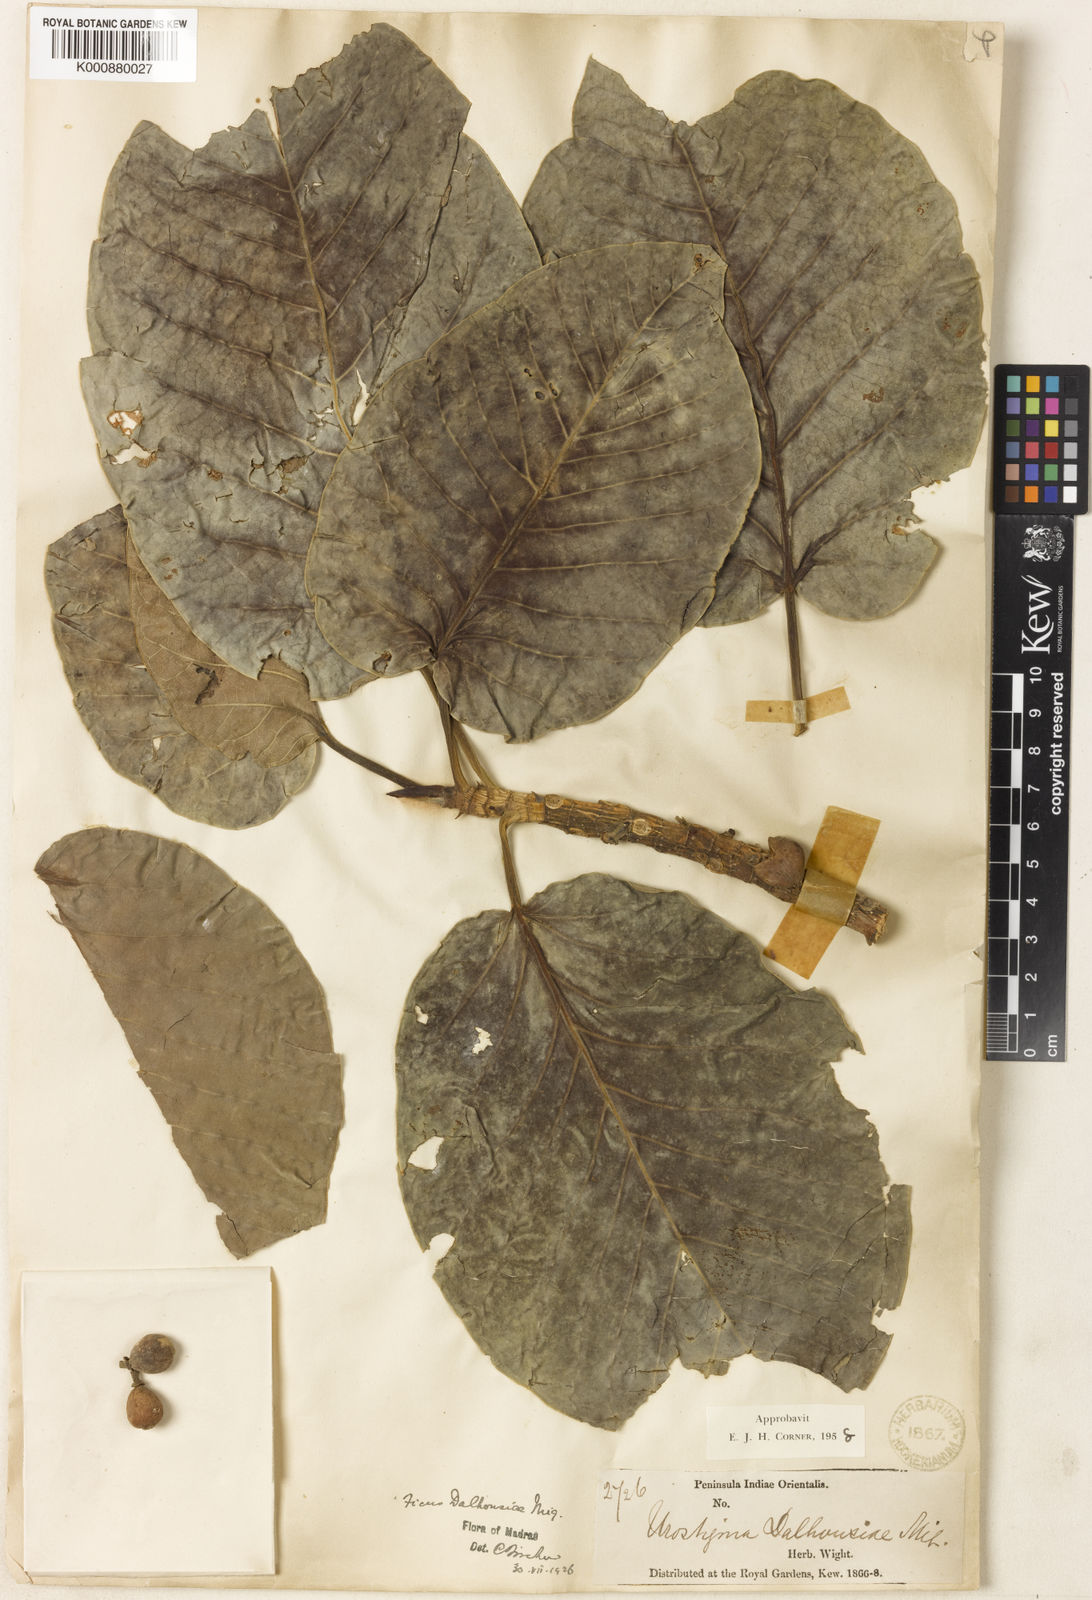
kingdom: Plantae
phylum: Tracheophyta
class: Magnoliopsida
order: Rosales
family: Moraceae
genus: Ficus
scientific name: Ficus dalhousiae
